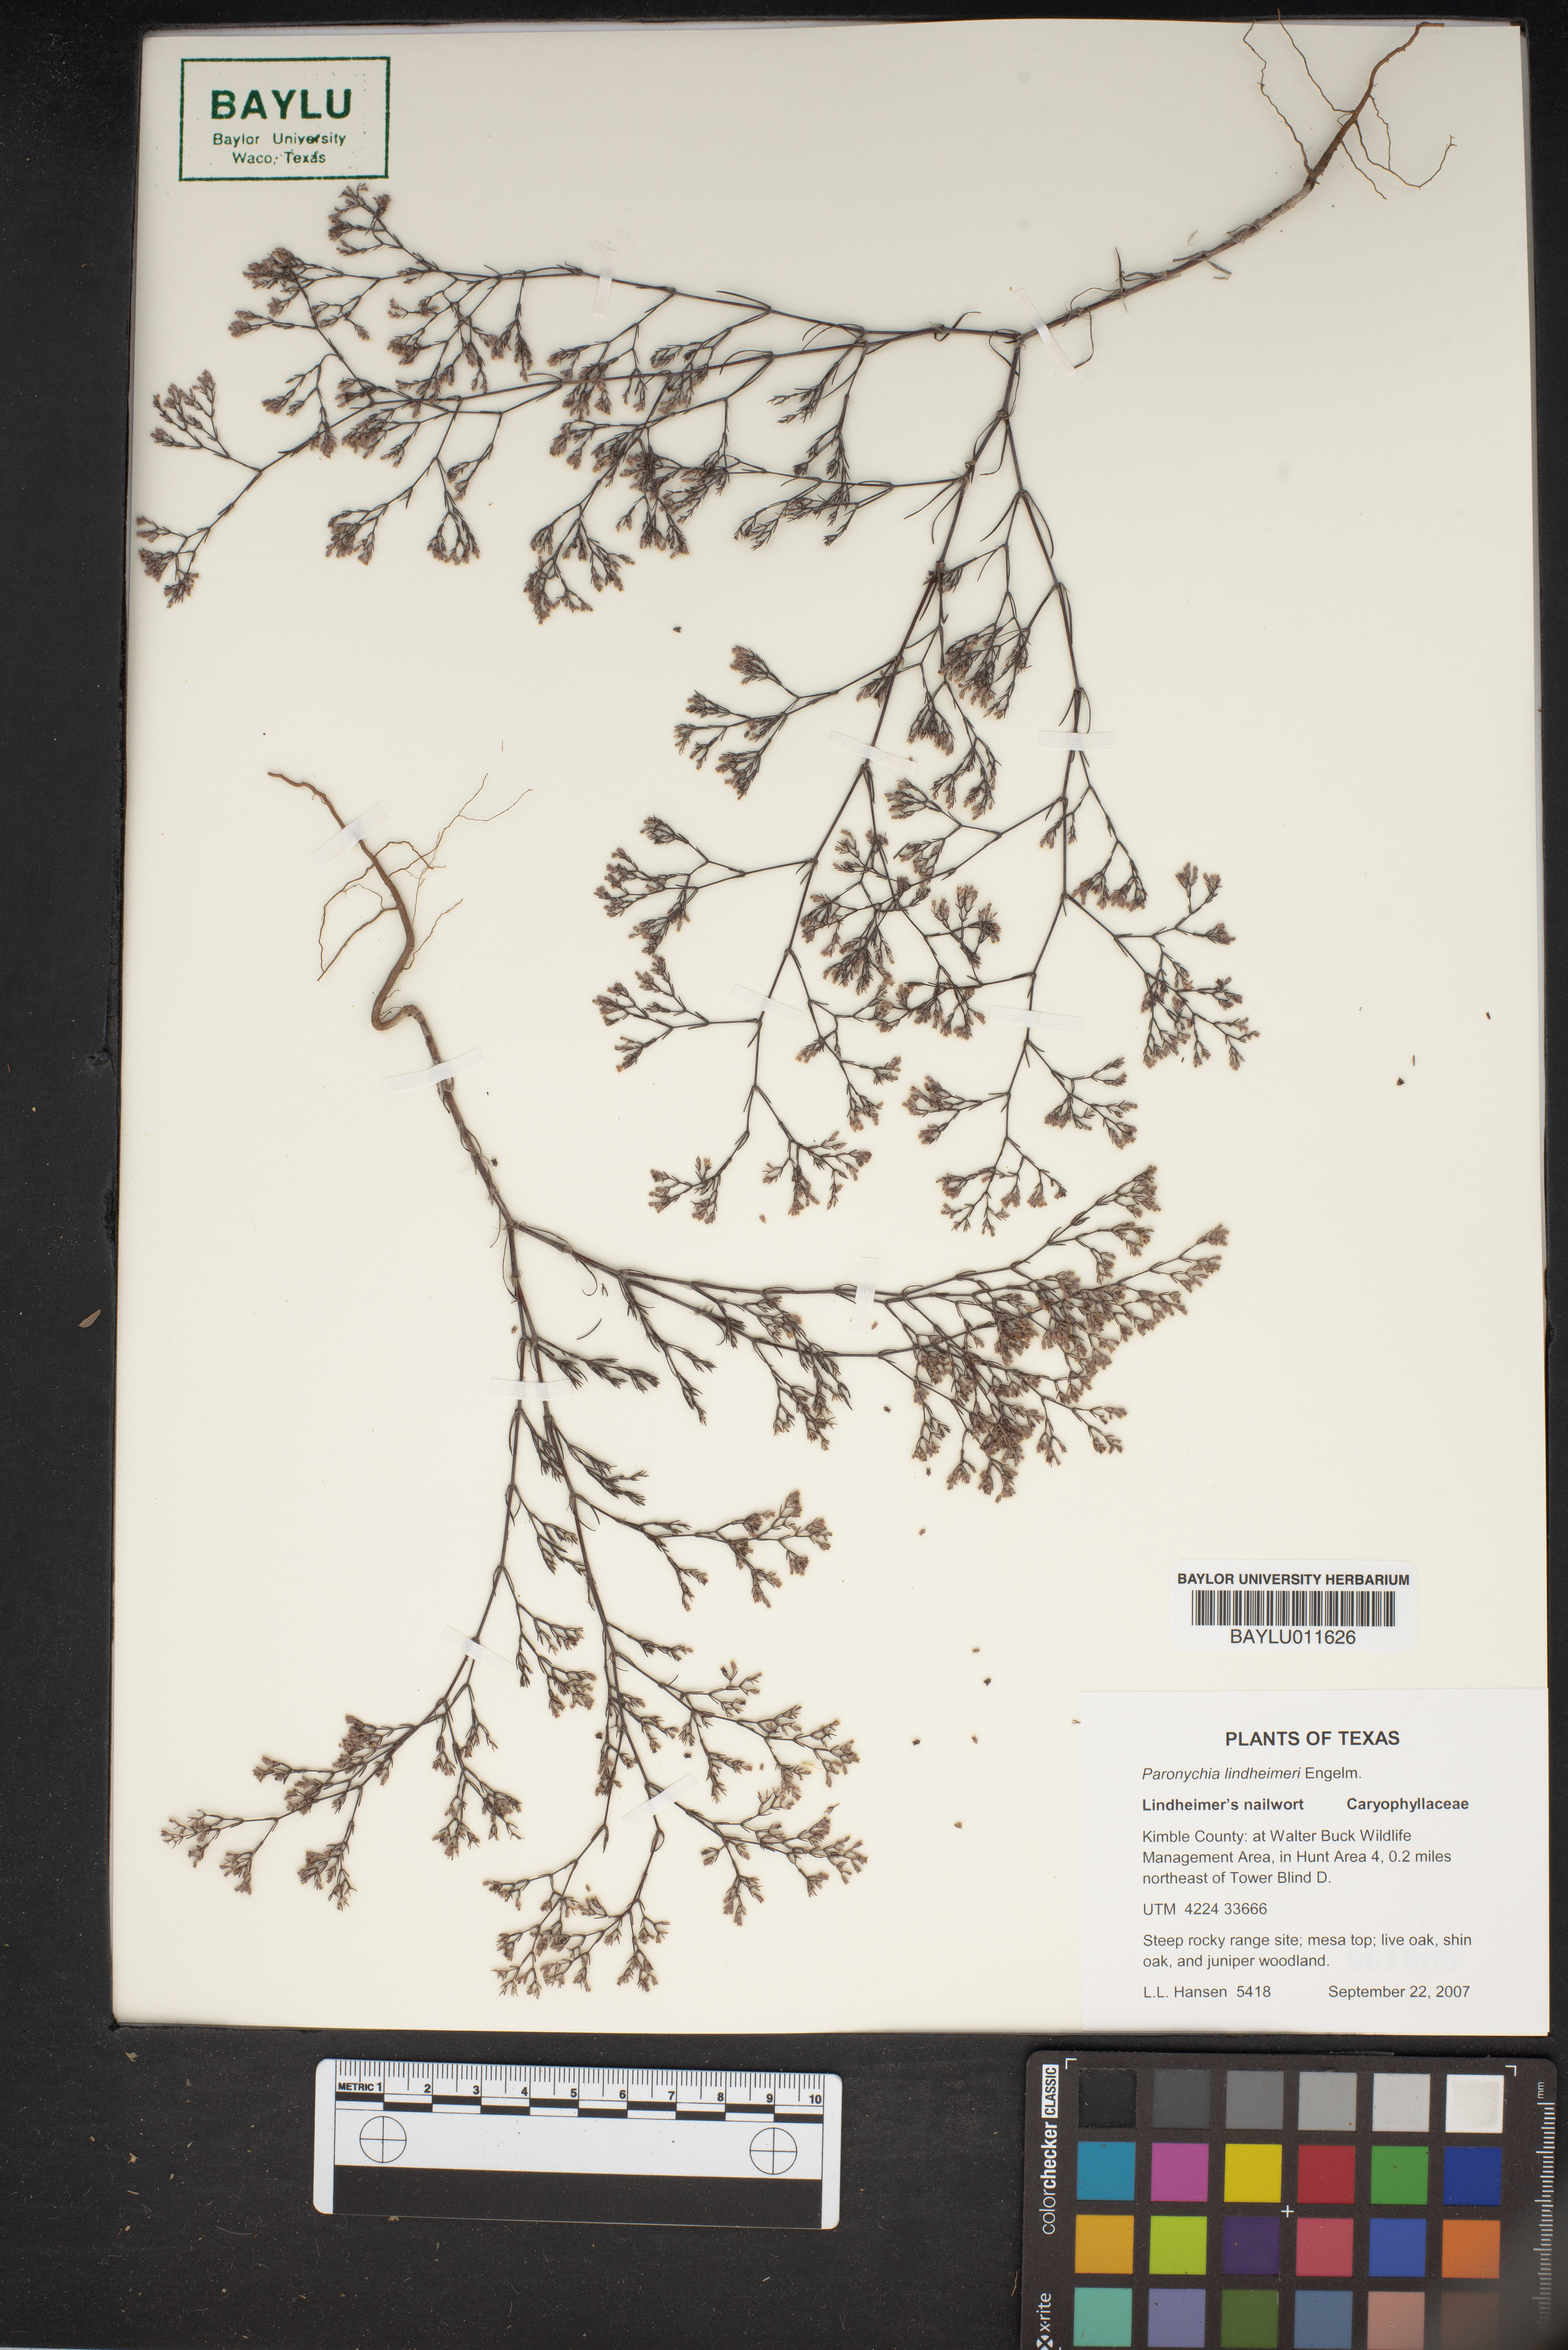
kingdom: Plantae
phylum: Tracheophyta
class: Magnoliopsida
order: Caryophyllales
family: Caryophyllaceae
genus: Paronychia
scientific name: Paronychia lindheimeri
